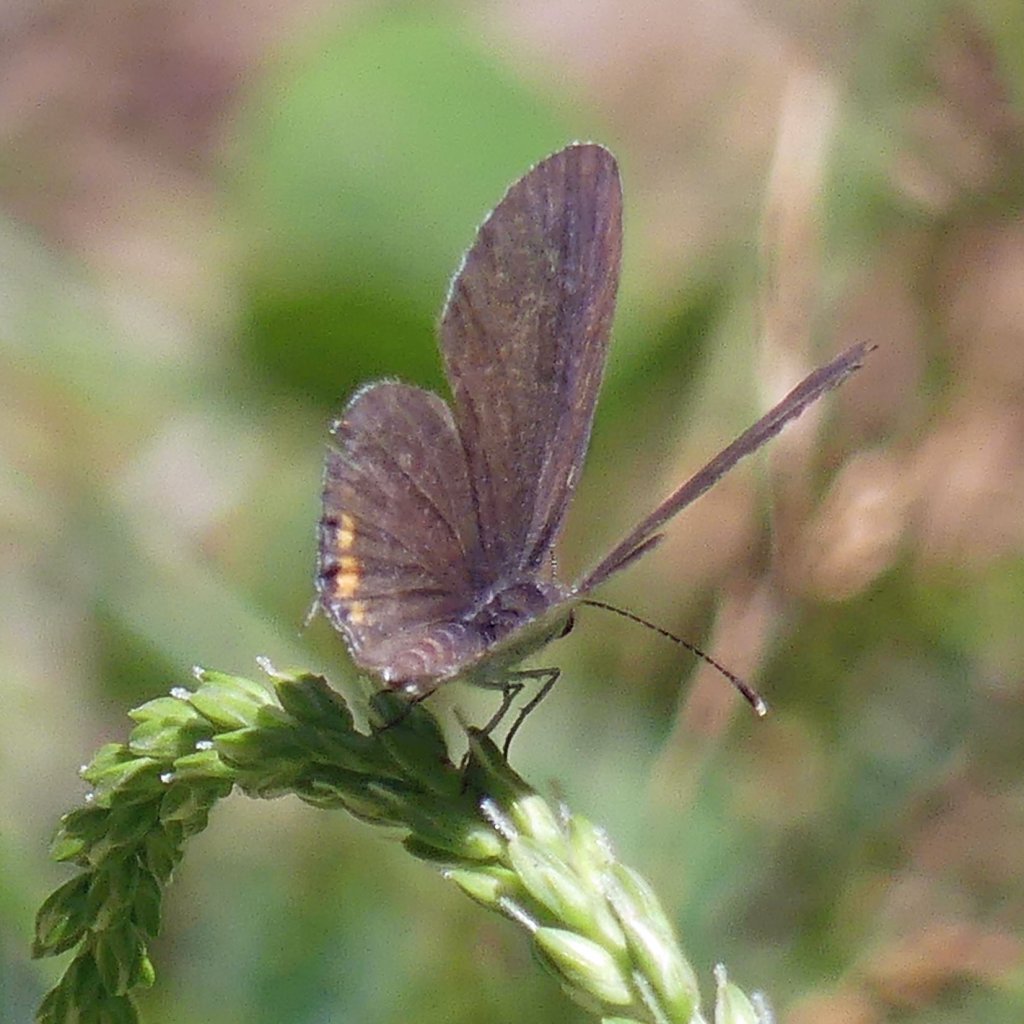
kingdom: Animalia
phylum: Arthropoda
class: Insecta
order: Lepidoptera
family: Lycaenidae
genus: Elkalyce
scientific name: Elkalyce comyntas
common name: Eastern Tailed-Blue
